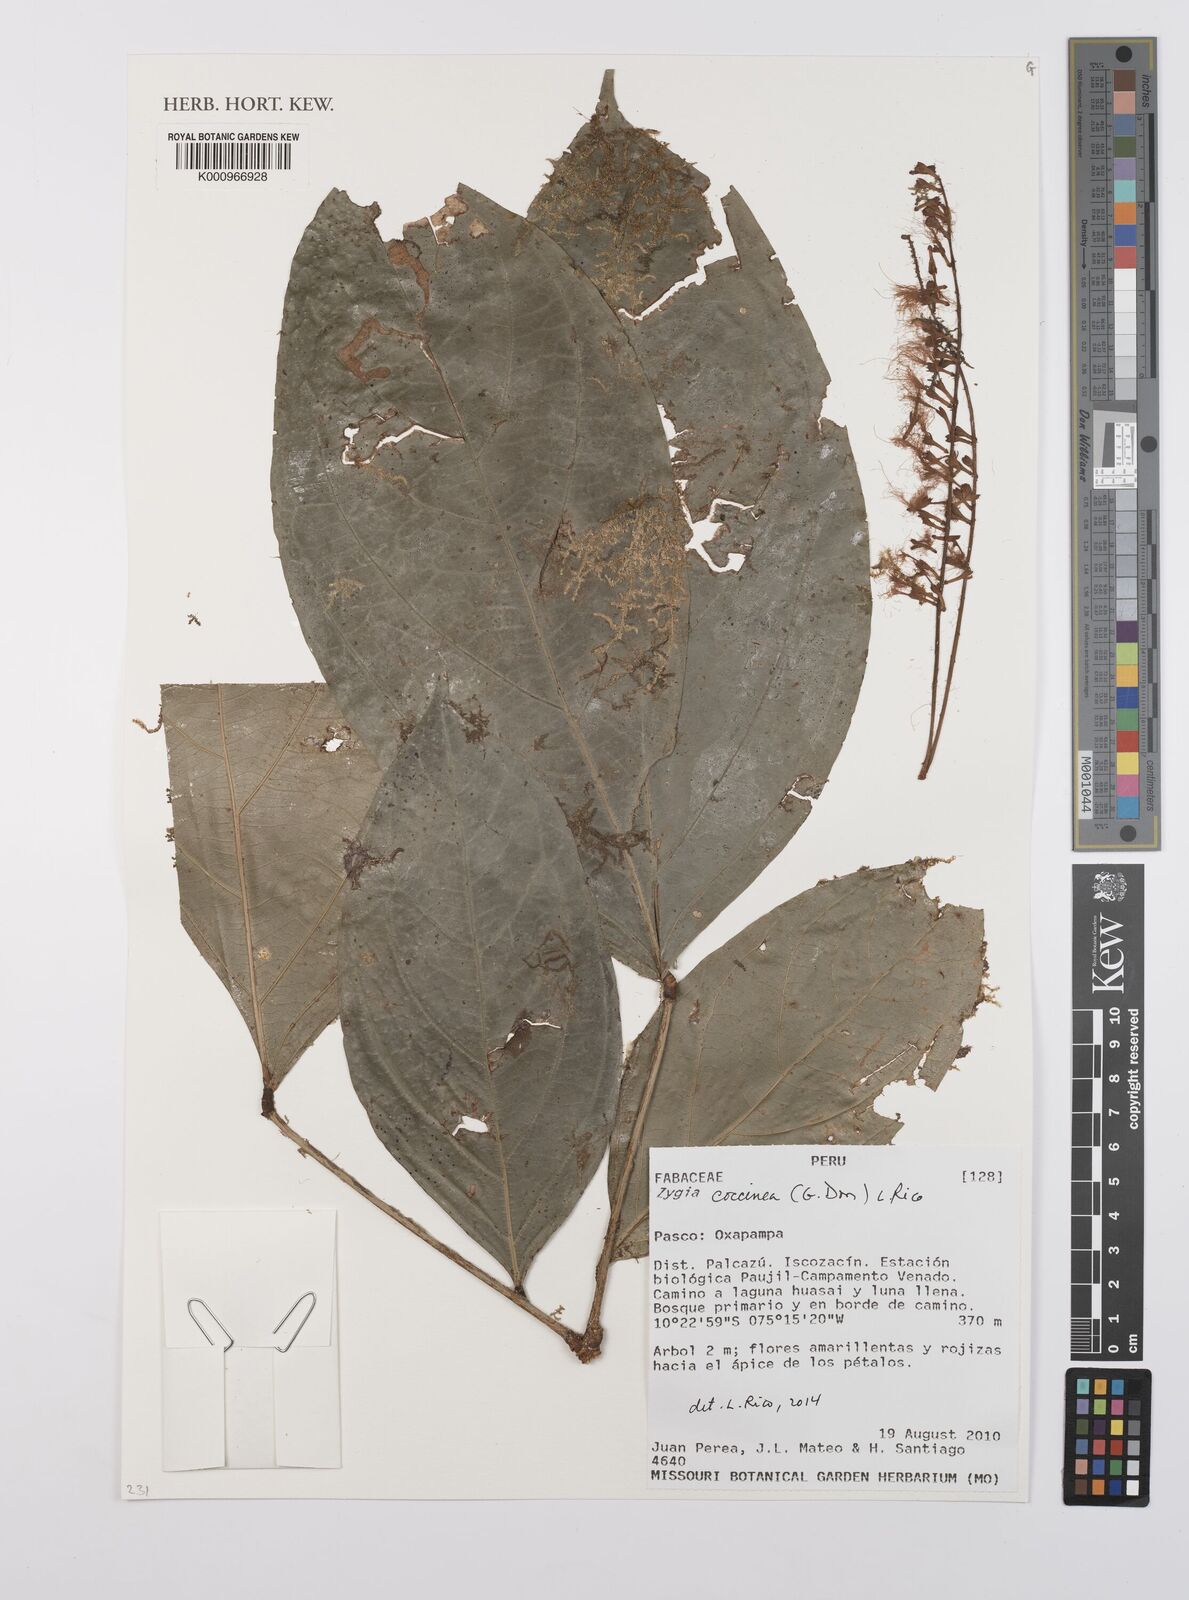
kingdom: Plantae
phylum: Tracheophyta
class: Magnoliopsida
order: Fabales
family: Fabaceae
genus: Zygia
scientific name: Zygia coccinea
